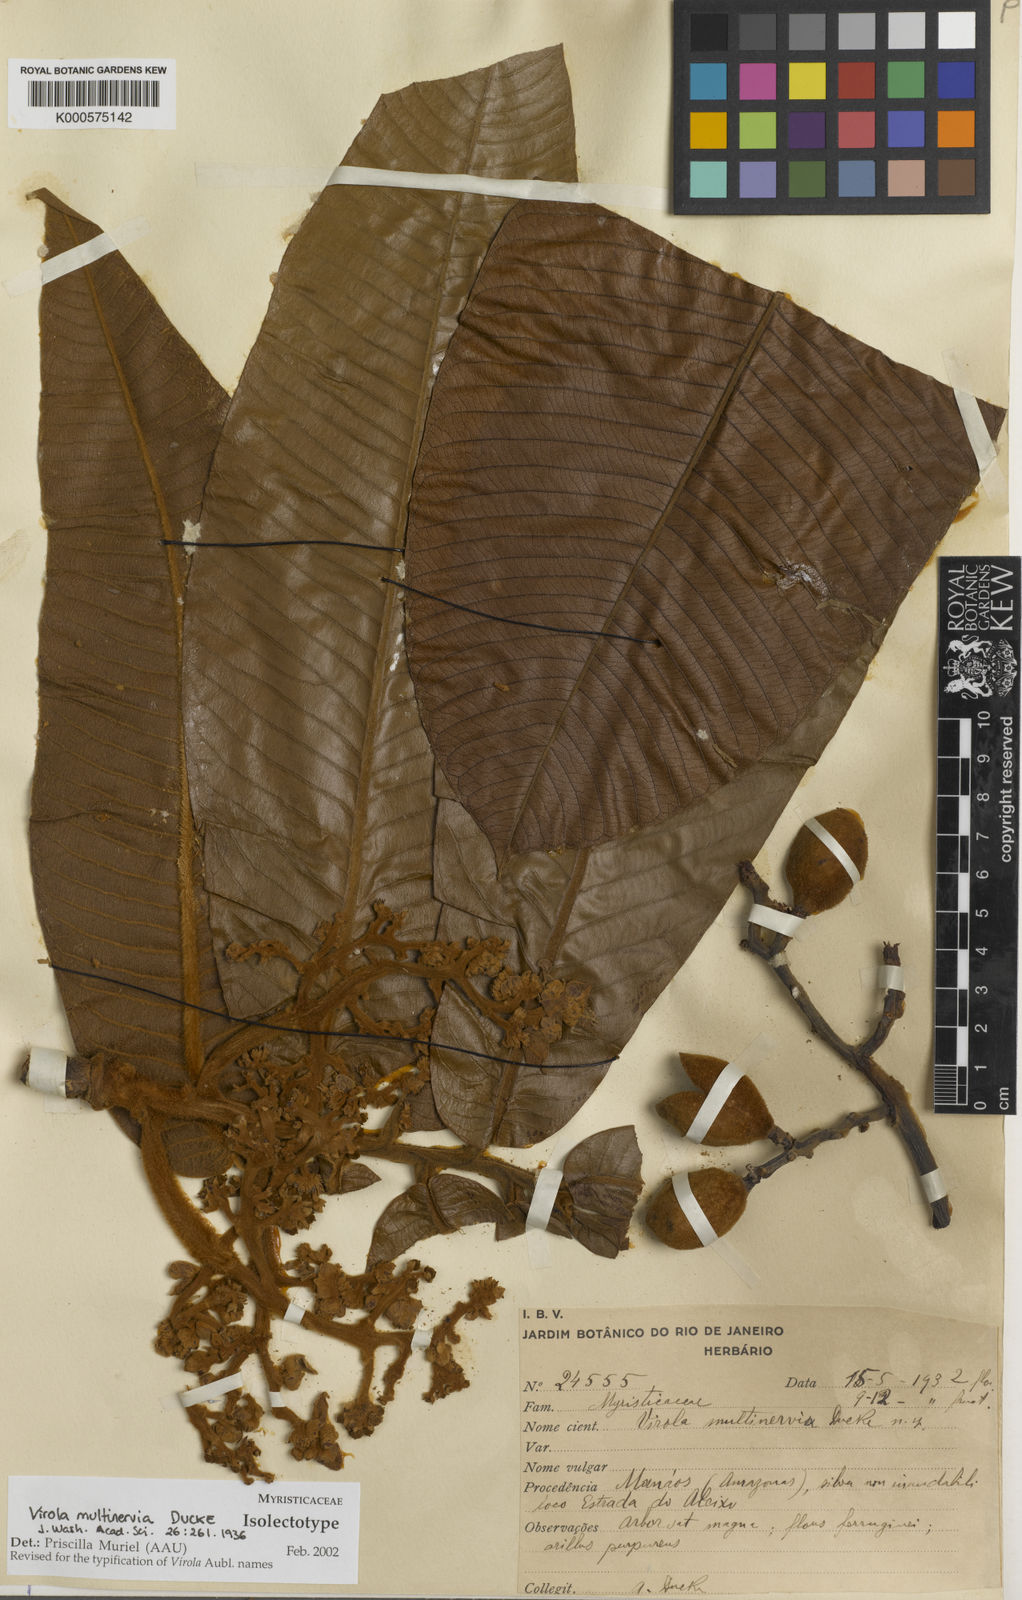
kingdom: Plantae
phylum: Tracheophyta
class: Magnoliopsida
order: Magnoliales
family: Myristicaceae
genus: Virola
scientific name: Virola multinervia
